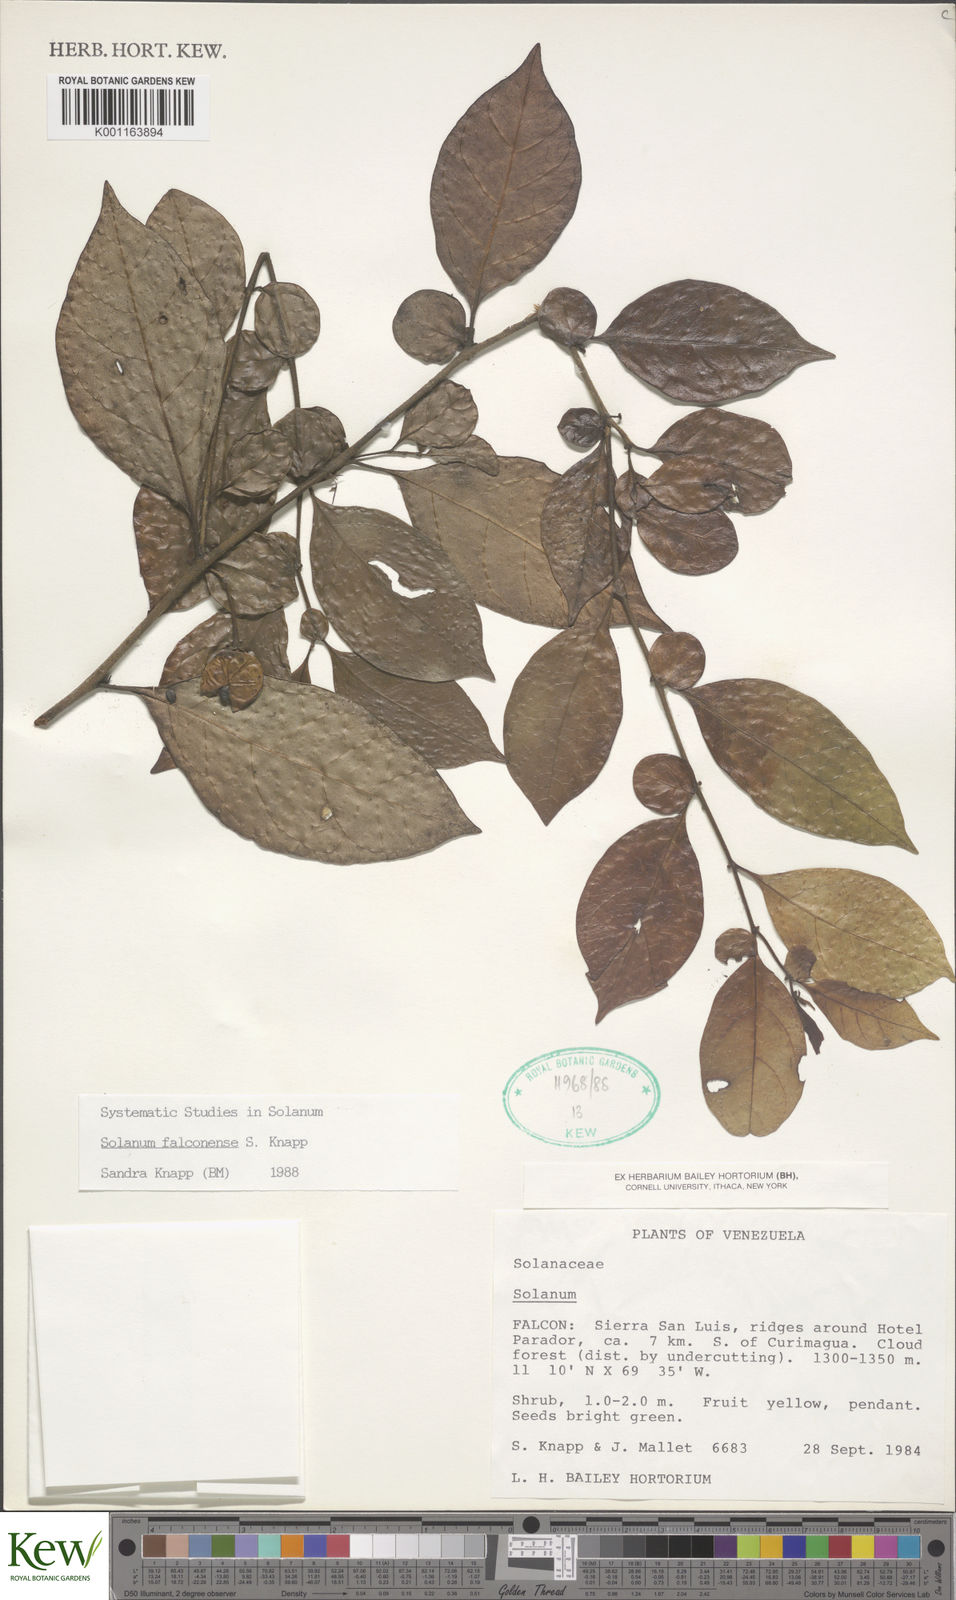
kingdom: Plantae
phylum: Tracheophyta
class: Magnoliopsida
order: Solanales
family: Solanaceae
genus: Solanum
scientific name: Solanum falconense
